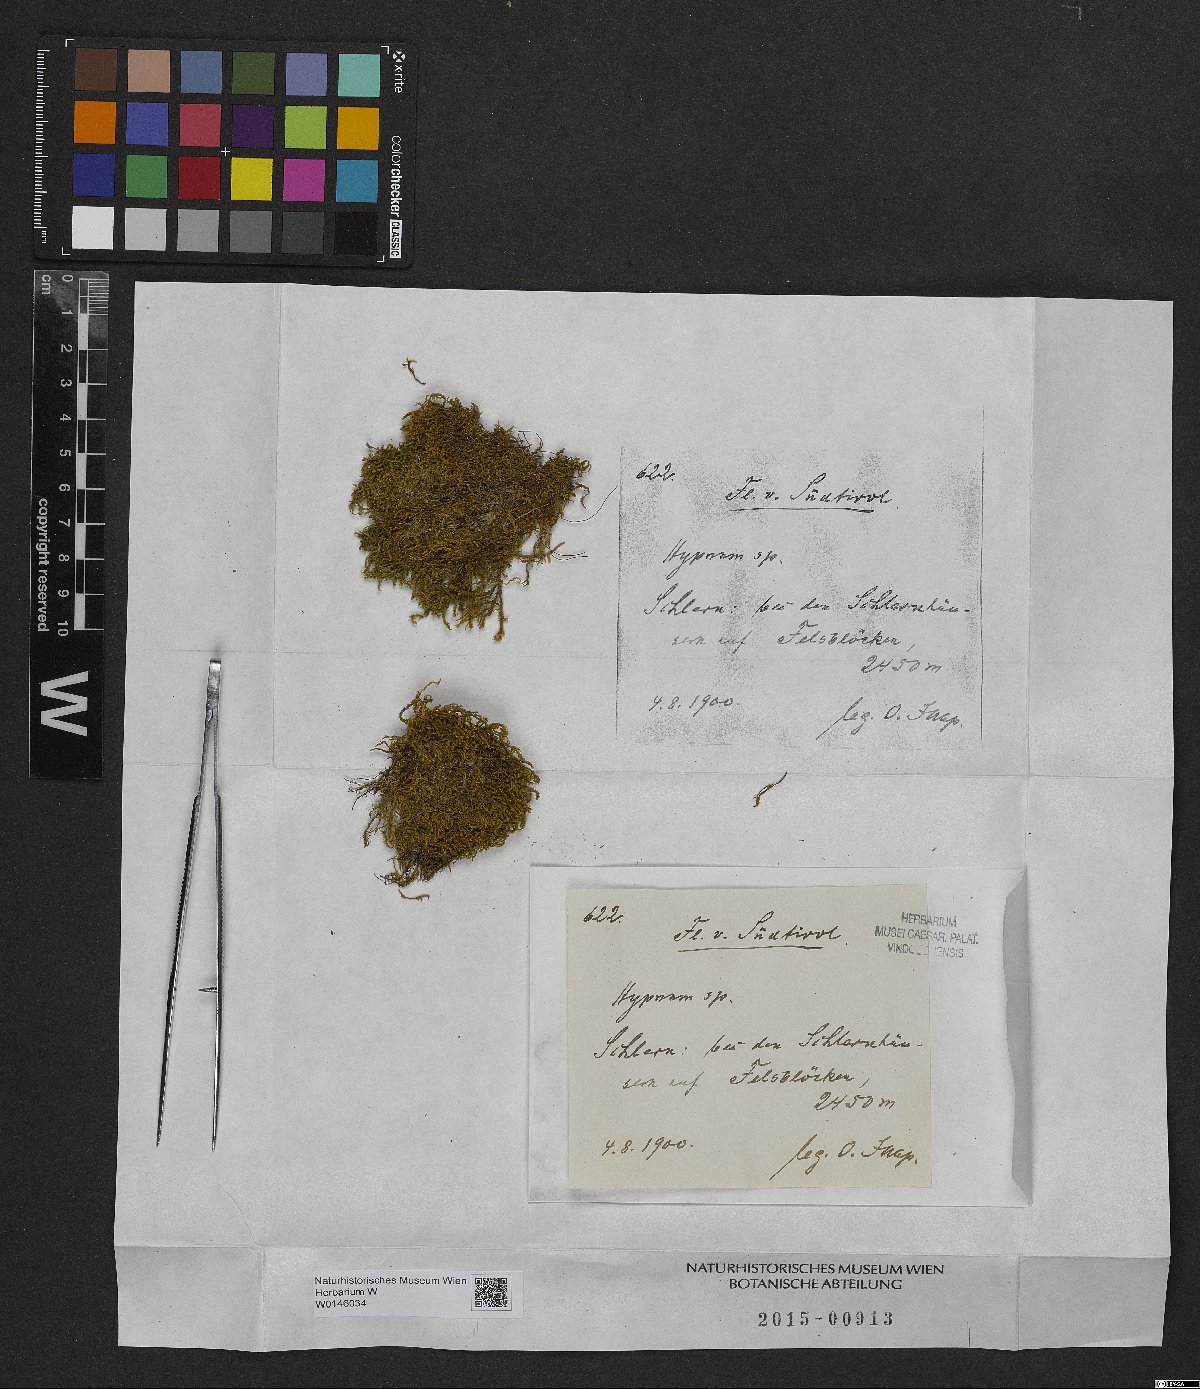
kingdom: Plantae
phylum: Bryophyta
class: Bryopsida
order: Hypnales
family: Hypnaceae
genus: Hypnum
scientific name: Hypnum
